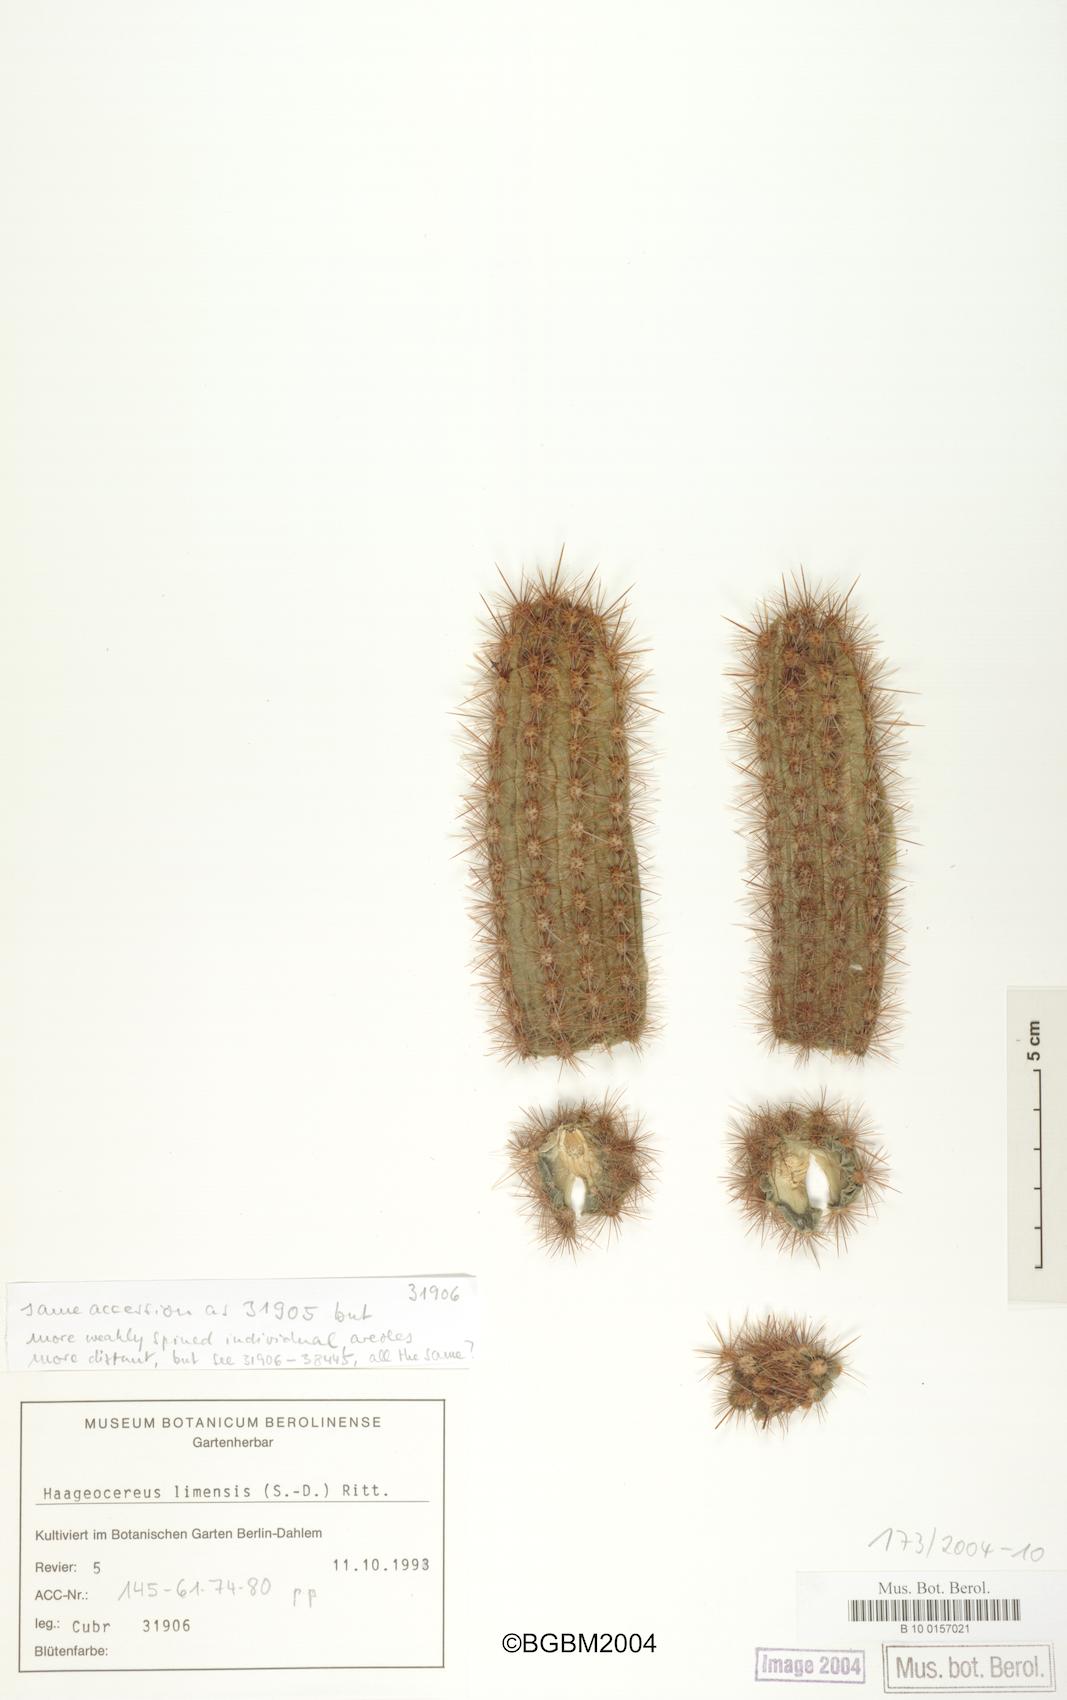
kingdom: Plantae
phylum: Tracheophyta
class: Magnoliopsida
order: Caryophyllales
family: Cactaceae
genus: Haageocereus
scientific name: Haageocereus acranthus
